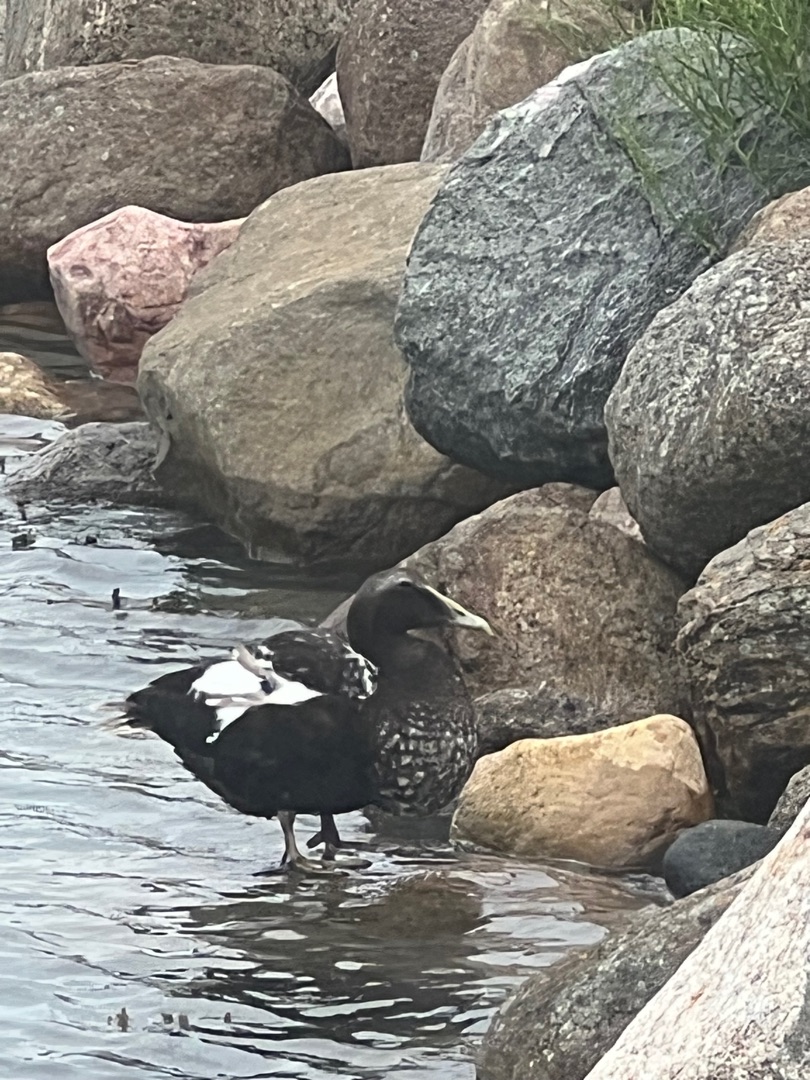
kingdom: Animalia
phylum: Chordata
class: Aves
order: Anseriformes
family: Anatidae
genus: Somateria
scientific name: Somateria mollissima
